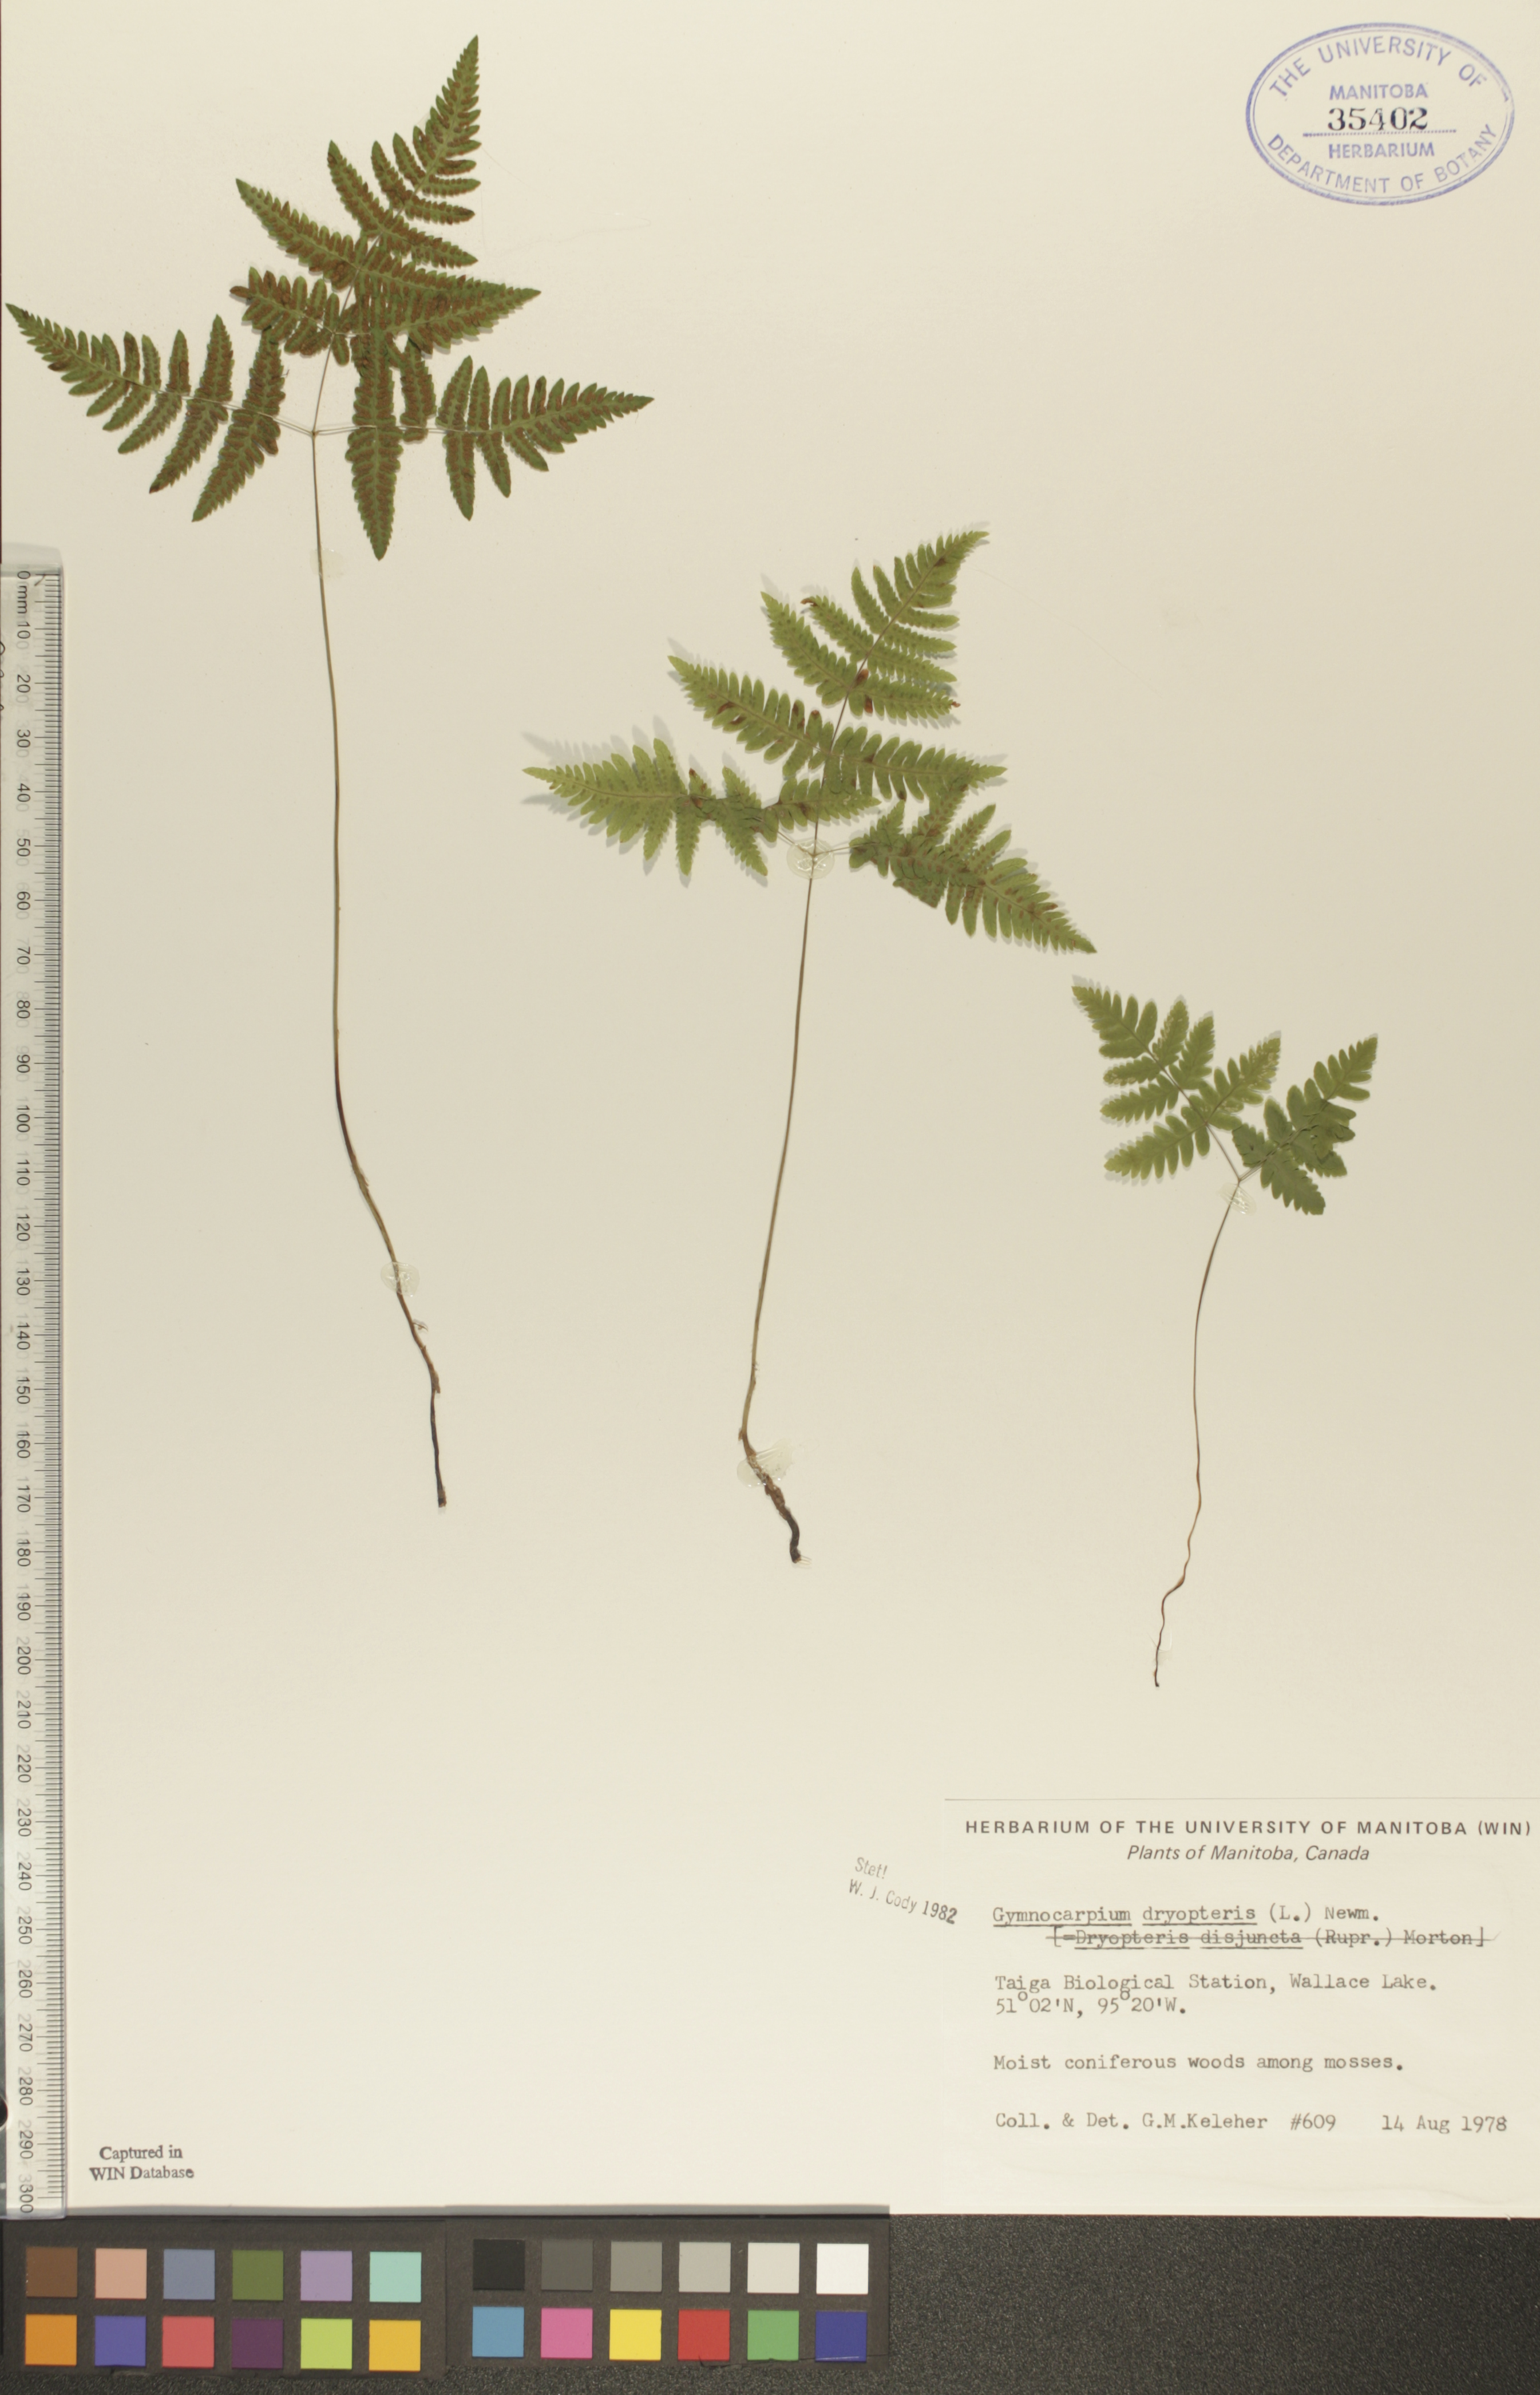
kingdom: Plantae
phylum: Tracheophyta
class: Polypodiopsida
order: Polypodiales
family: Cystopteridaceae
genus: Gymnocarpium
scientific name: Gymnocarpium dryopteris
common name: Oak fern
